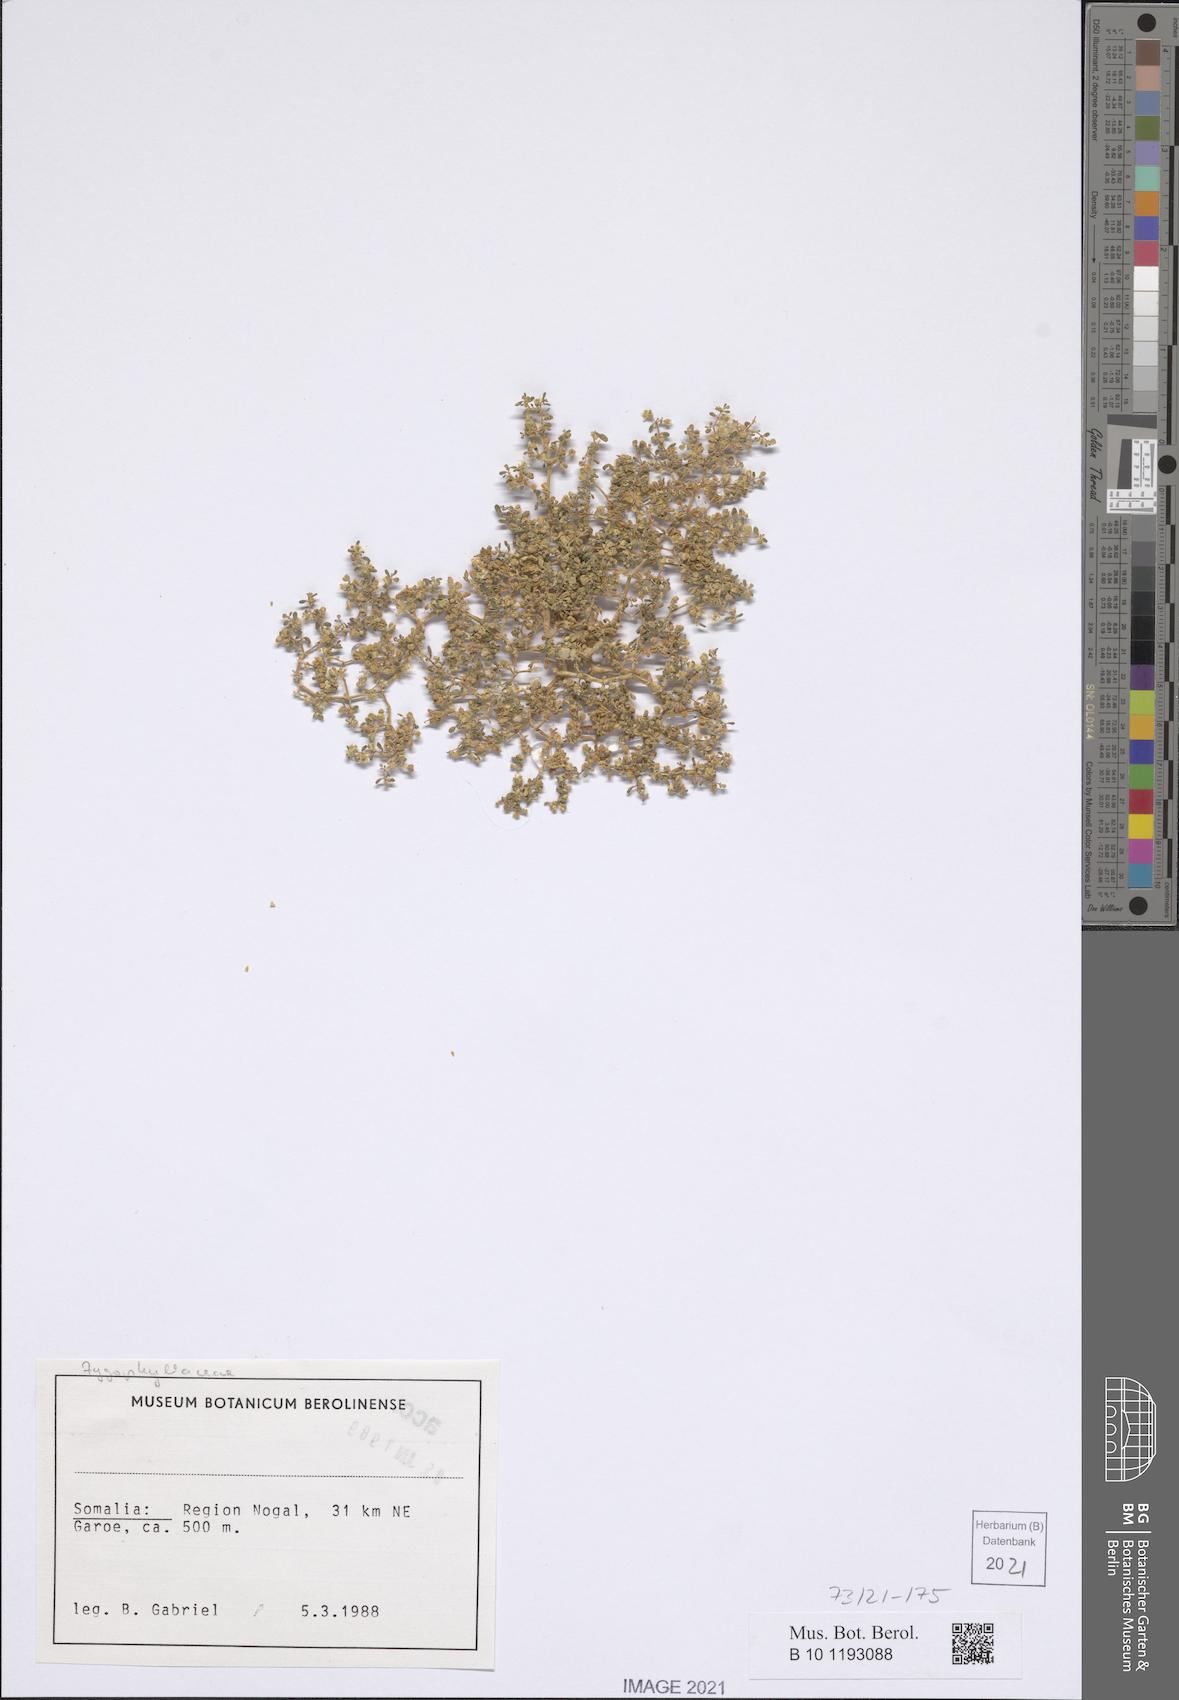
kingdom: Plantae
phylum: Tracheophyta
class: Magnoliopsida
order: Zygophyllales
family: Zygophyllaceae
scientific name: Zygophyllaceae
